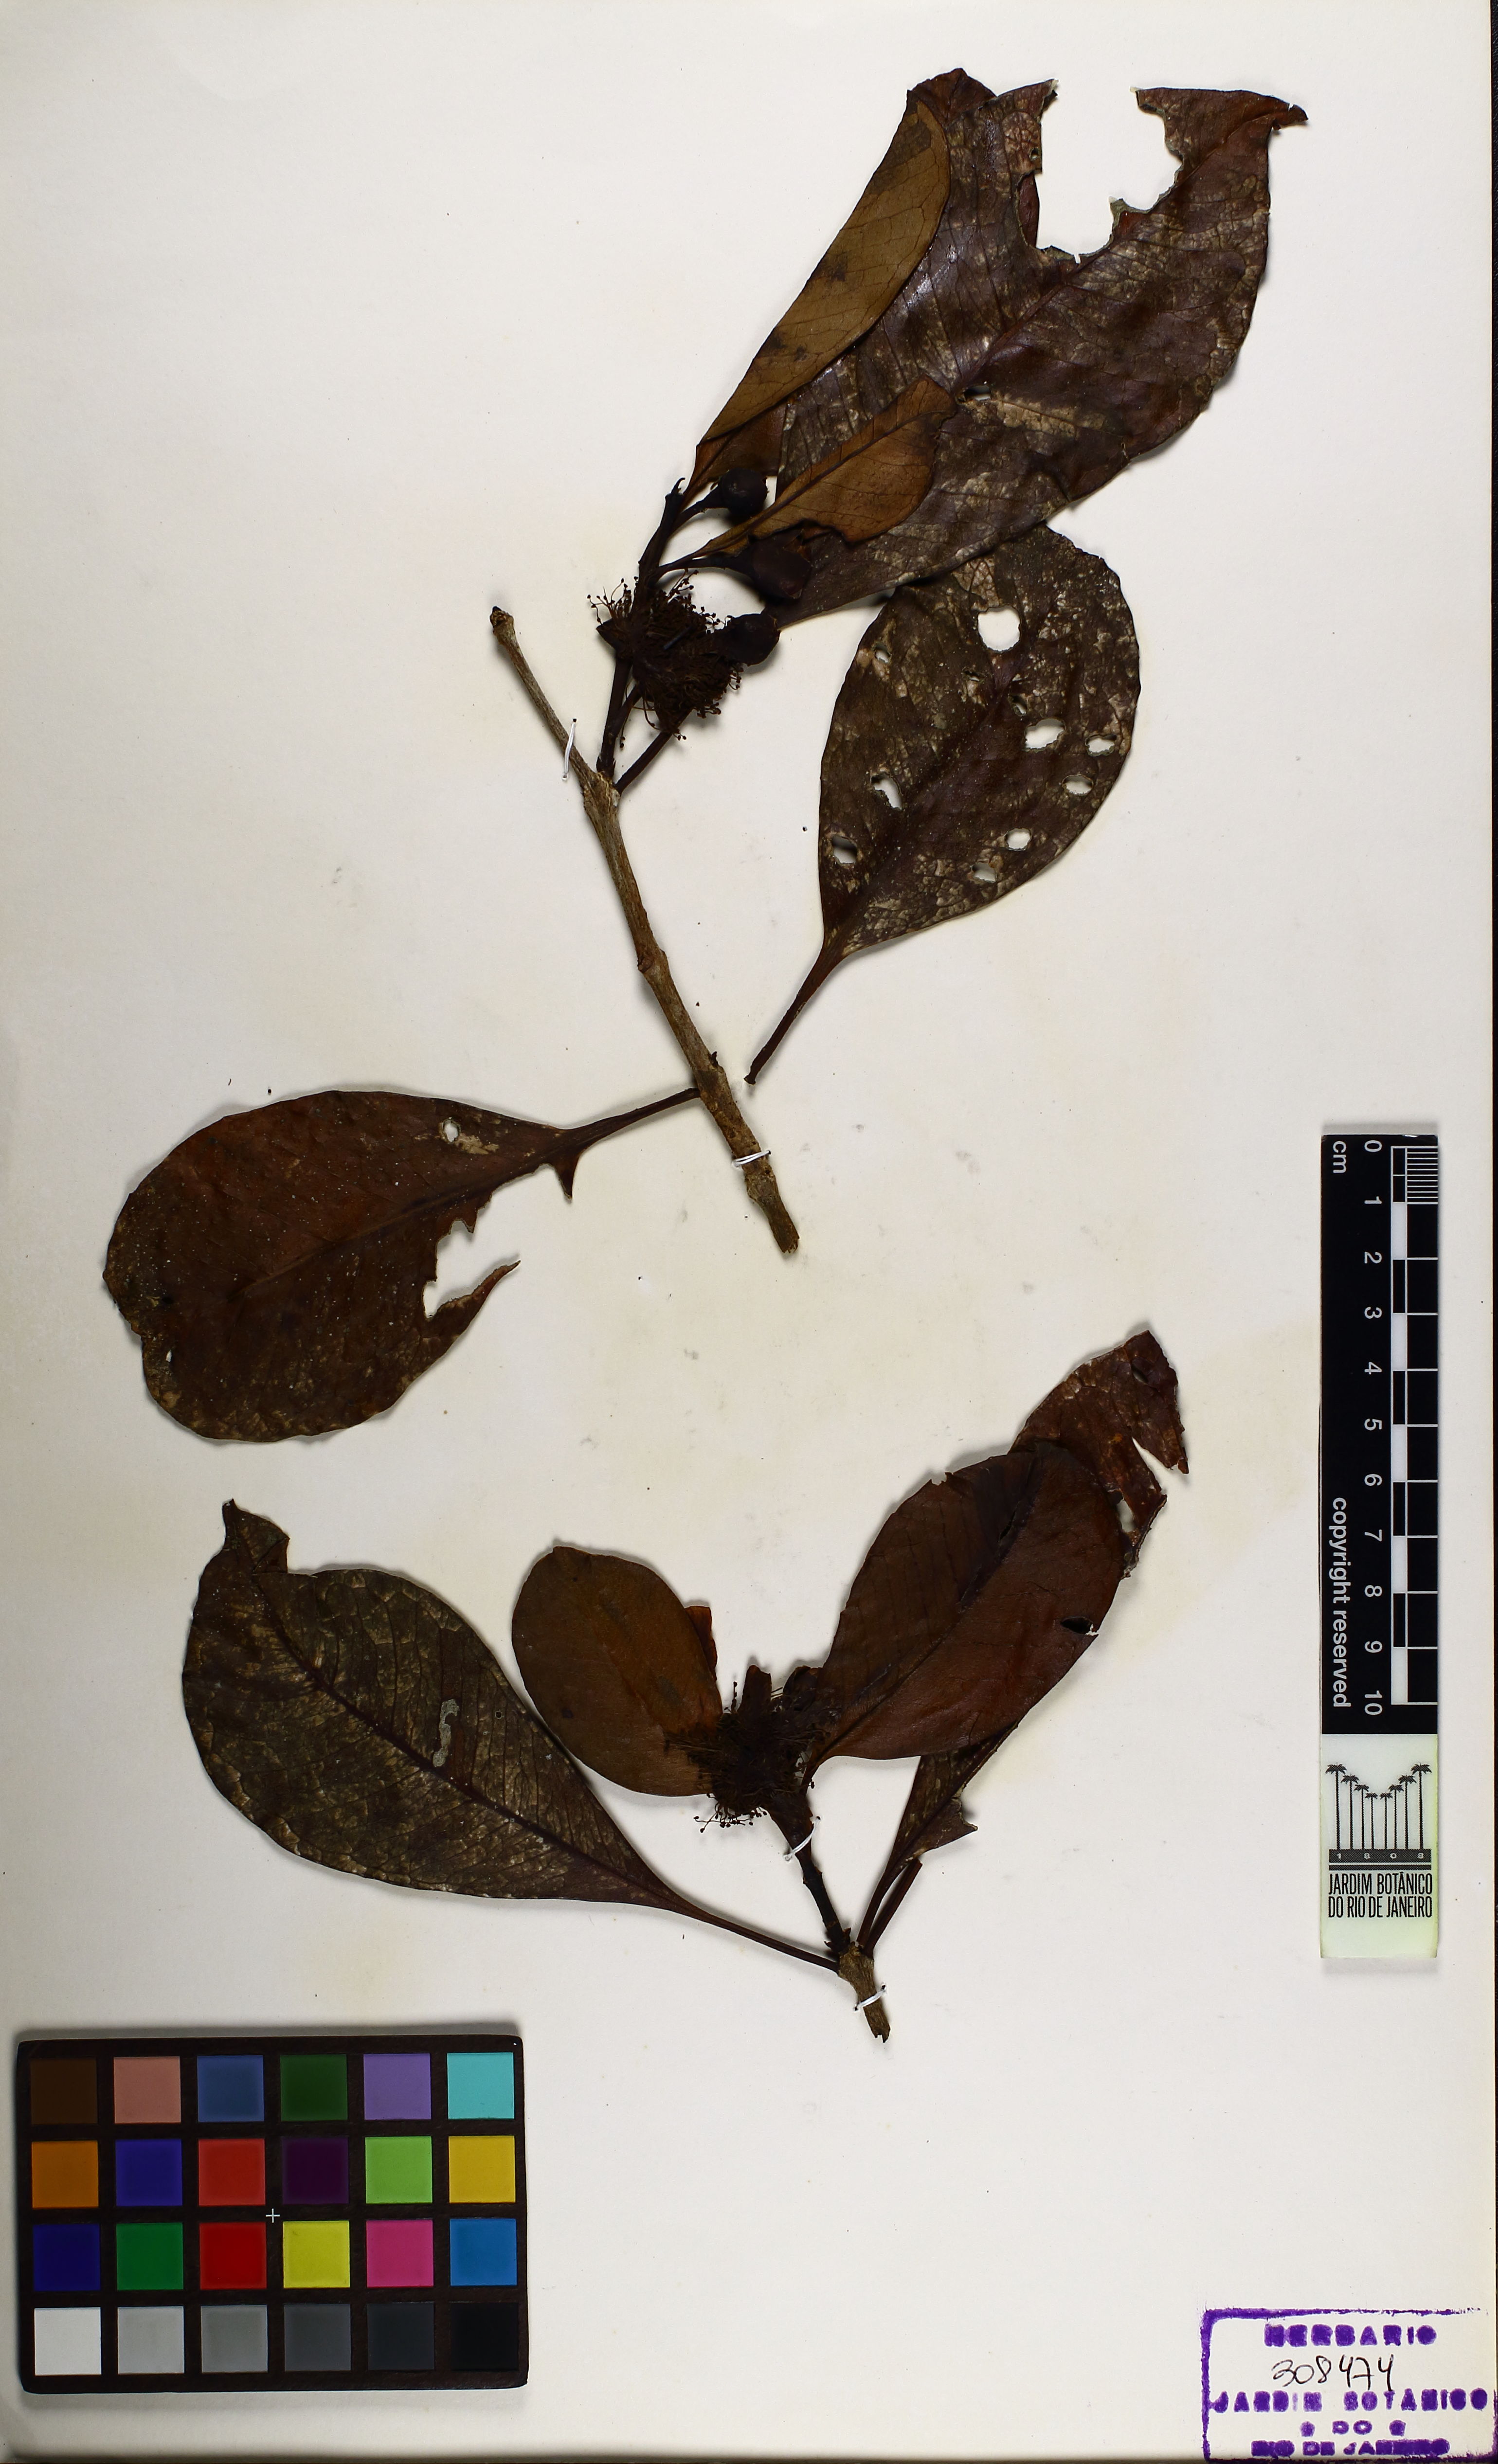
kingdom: Plantae
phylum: Tracheophyta
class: Magnoliopsida
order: Myrtales
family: Myrtaceae
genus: Psidium
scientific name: Psidium longipetiolatum
